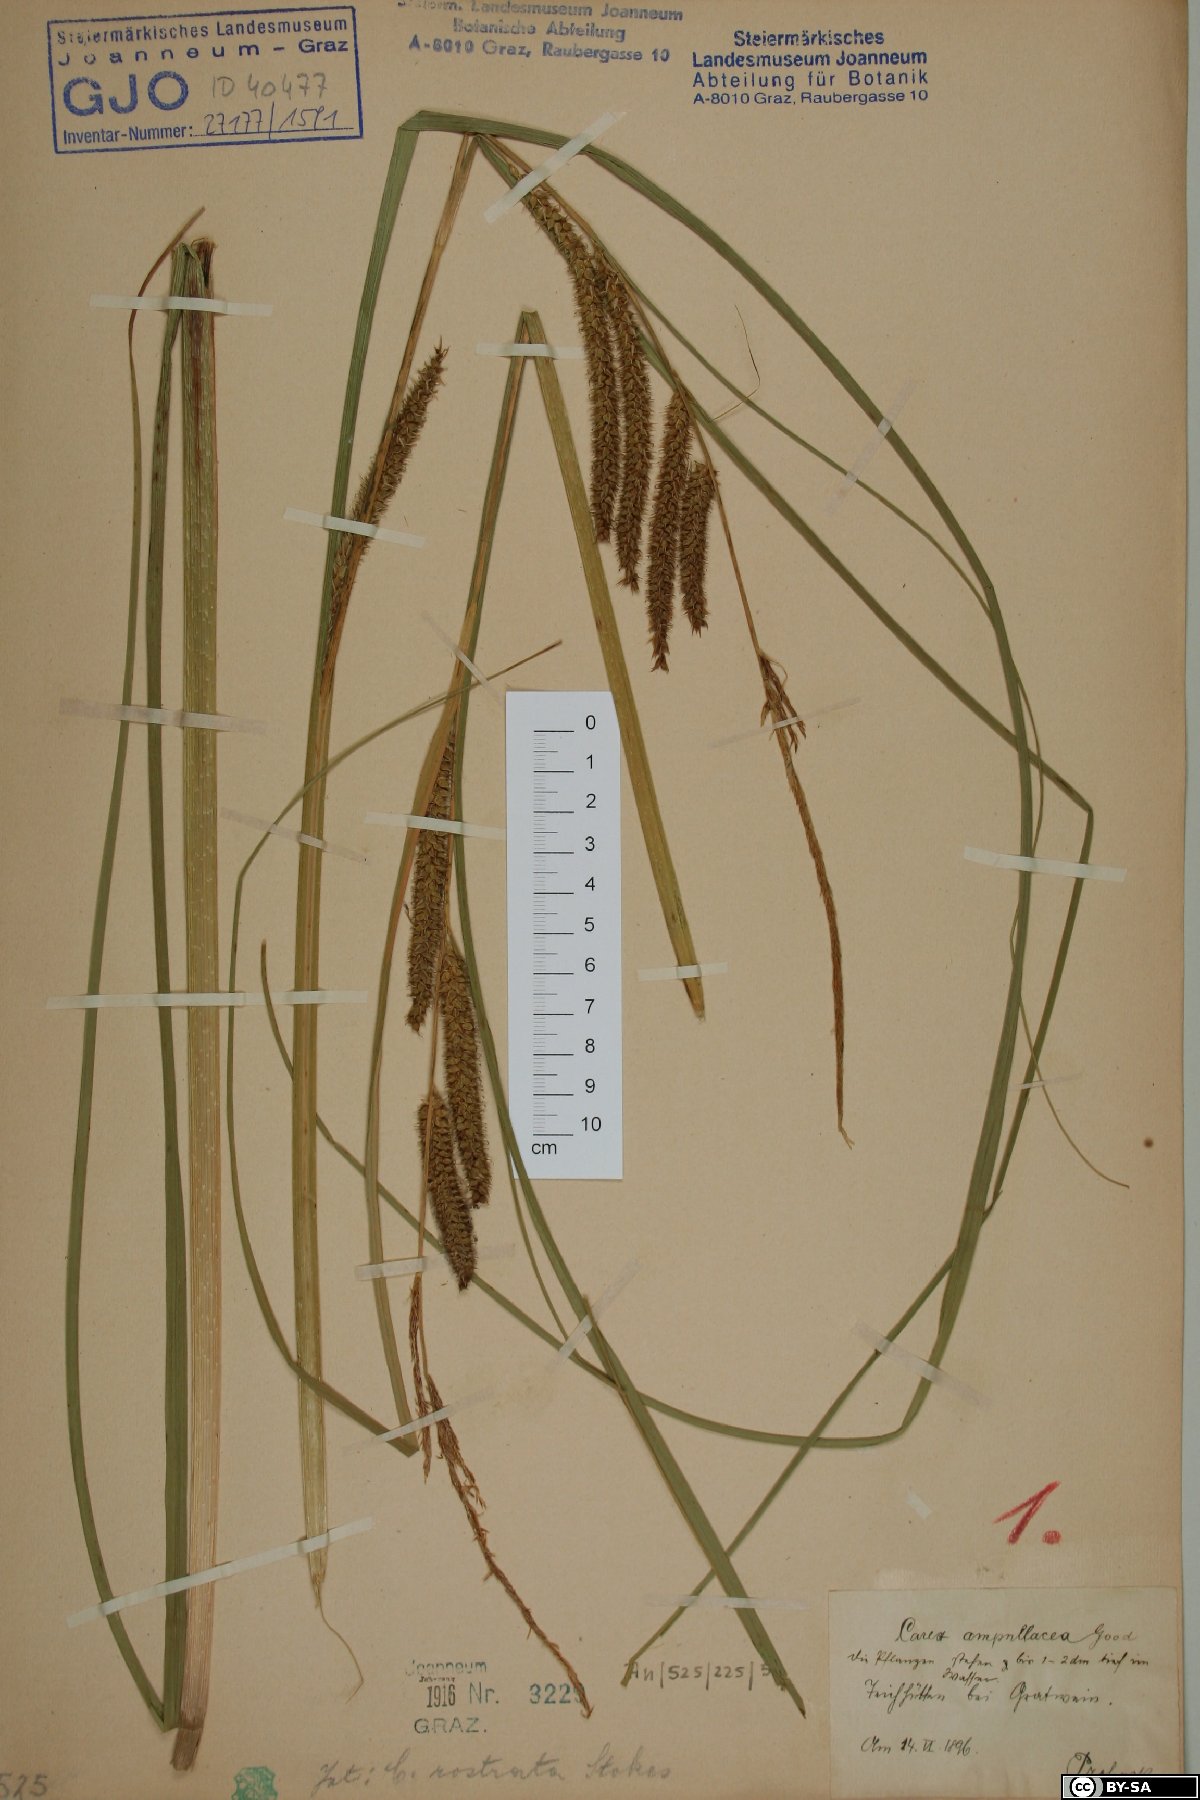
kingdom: Plantae
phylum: Tracheophyta
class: Liliopsida
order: Poales
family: Cyperaceae
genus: Carex
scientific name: Carex rostrata
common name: Bottle sedge
